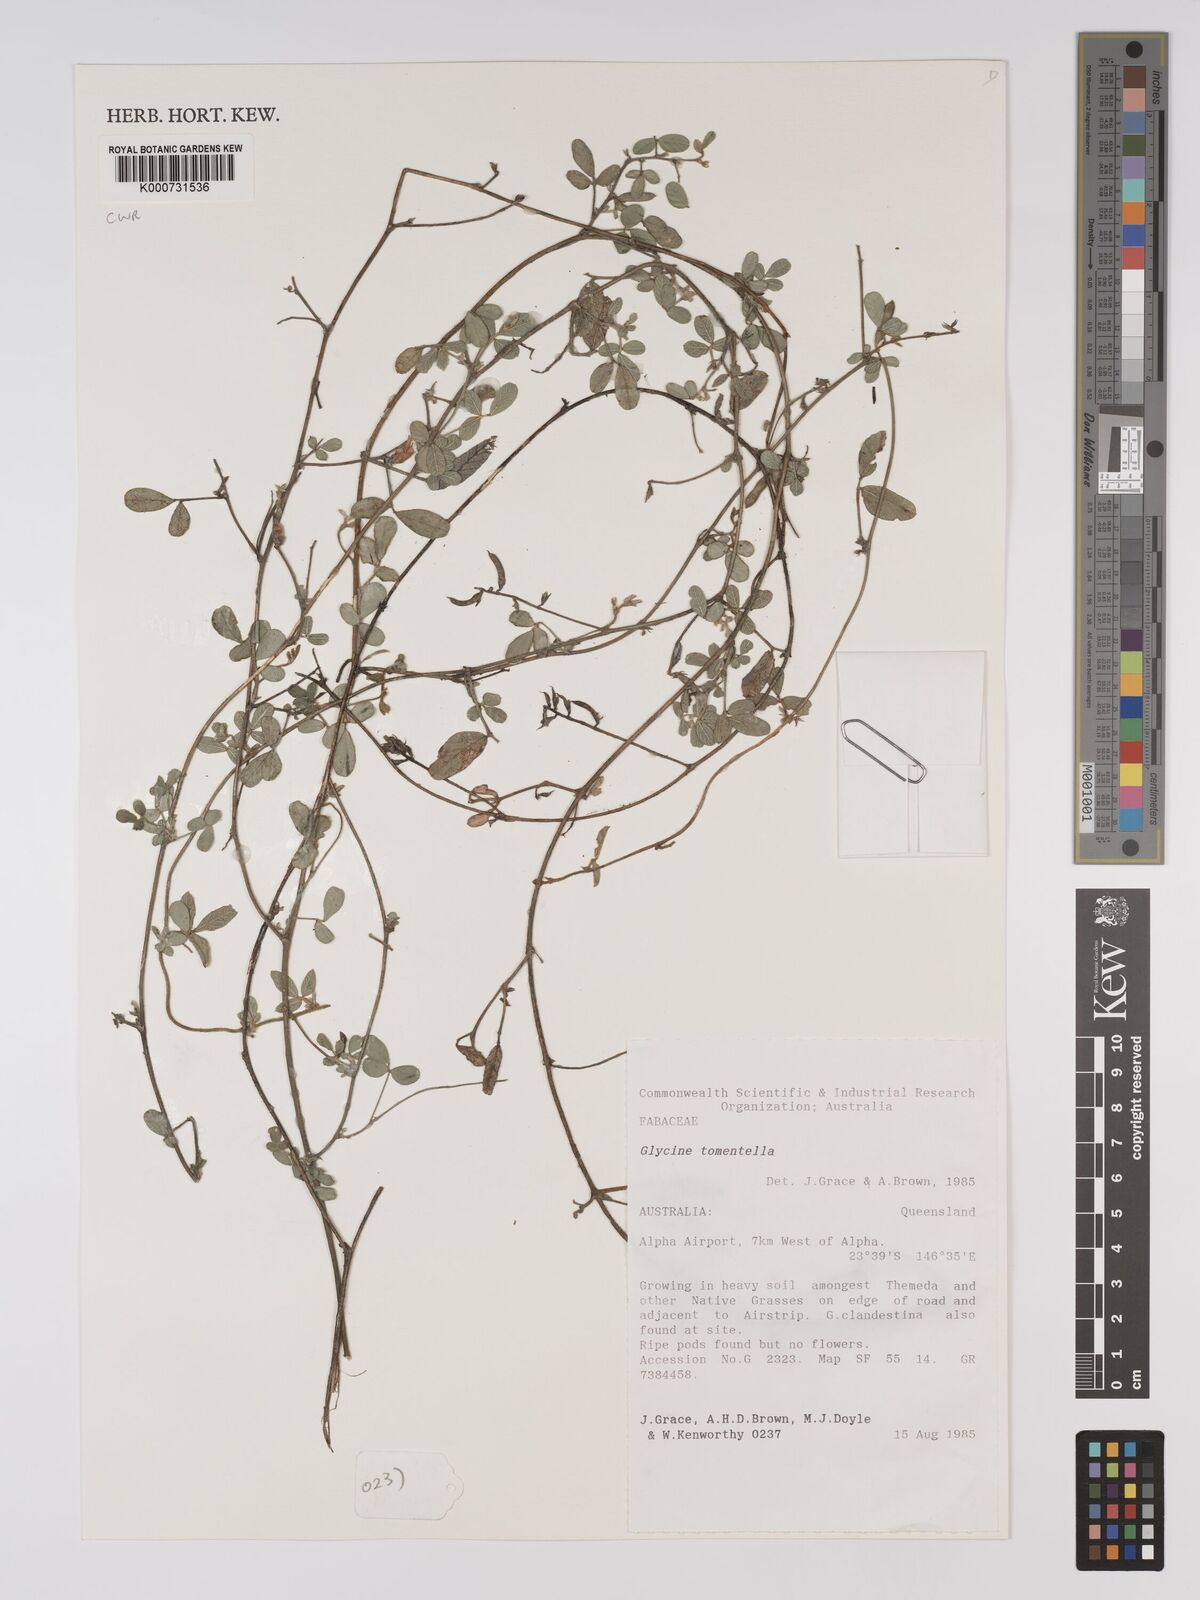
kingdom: Plantae
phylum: Tracheophyta
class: Magnoliopsida
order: Fabales
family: Fabaceae
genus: Glycine
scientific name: Glycine tomentella
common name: Hairy glycine
